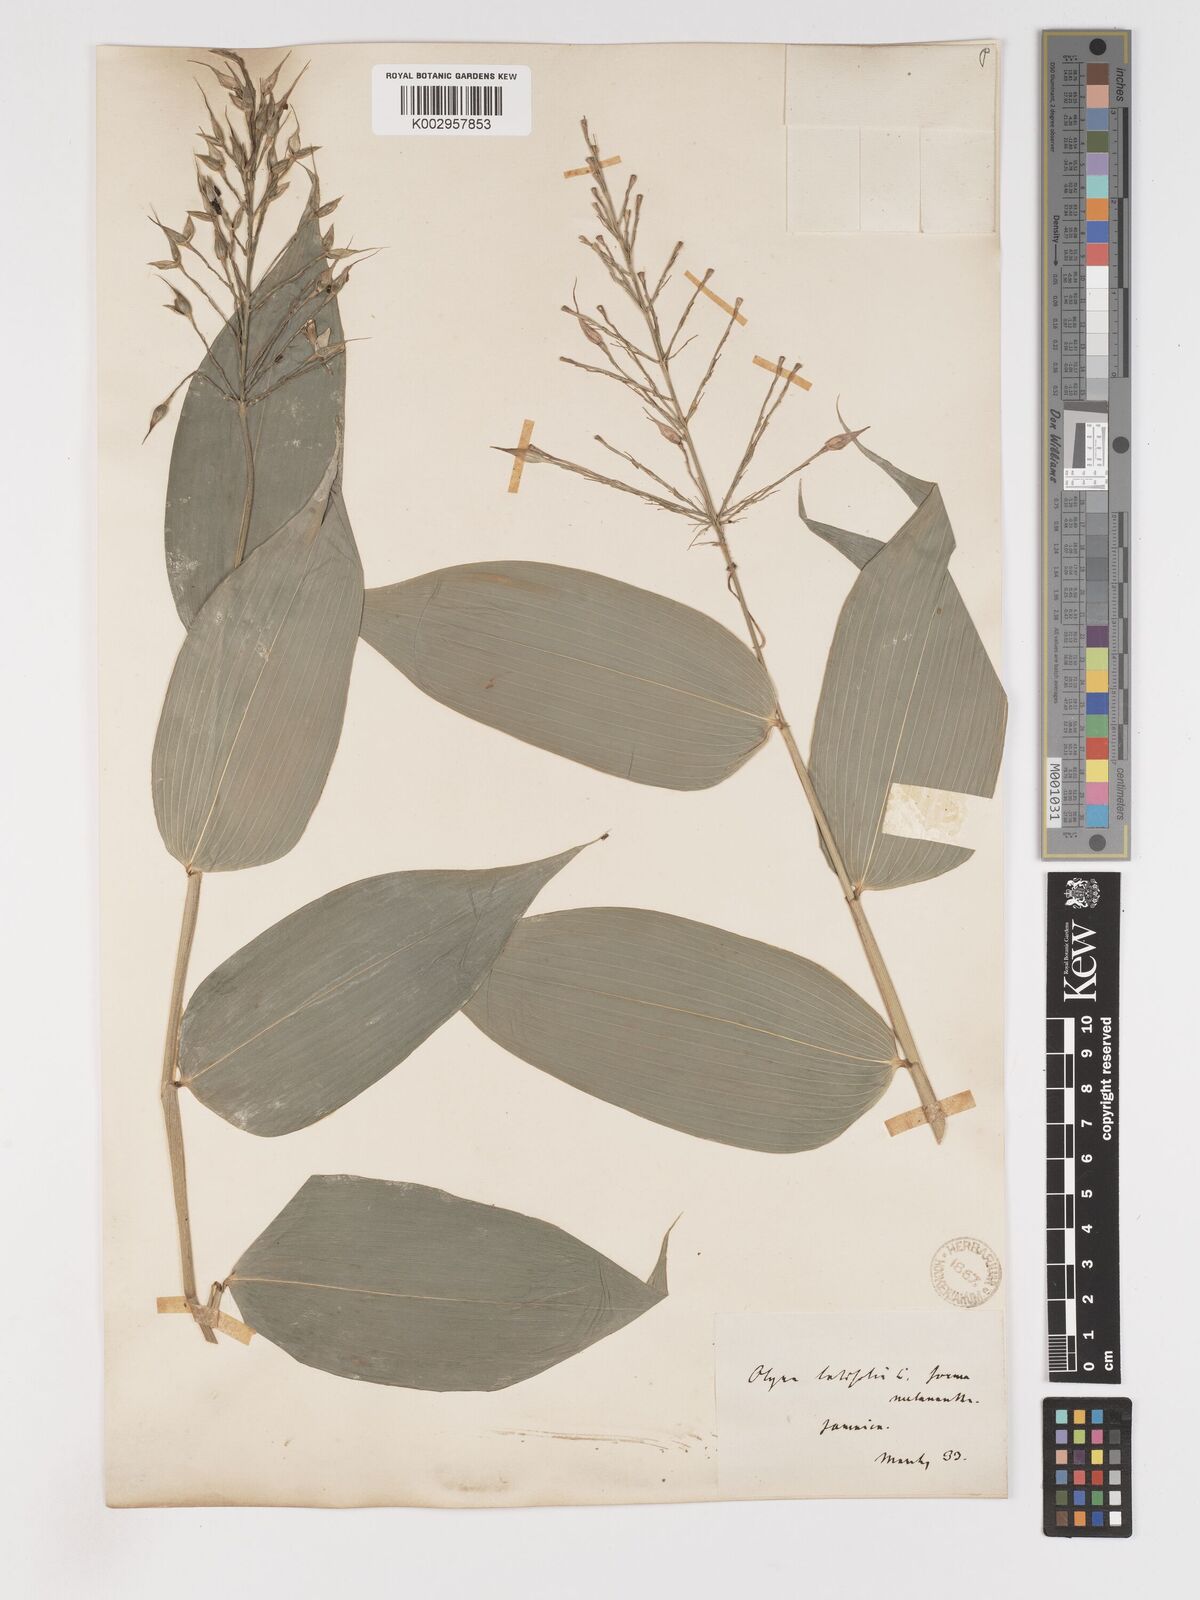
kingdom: Plantae
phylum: Tracheophyta
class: Liliopsida
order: Poales
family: Poaceae
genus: Olyra
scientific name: Olyra latifolia
